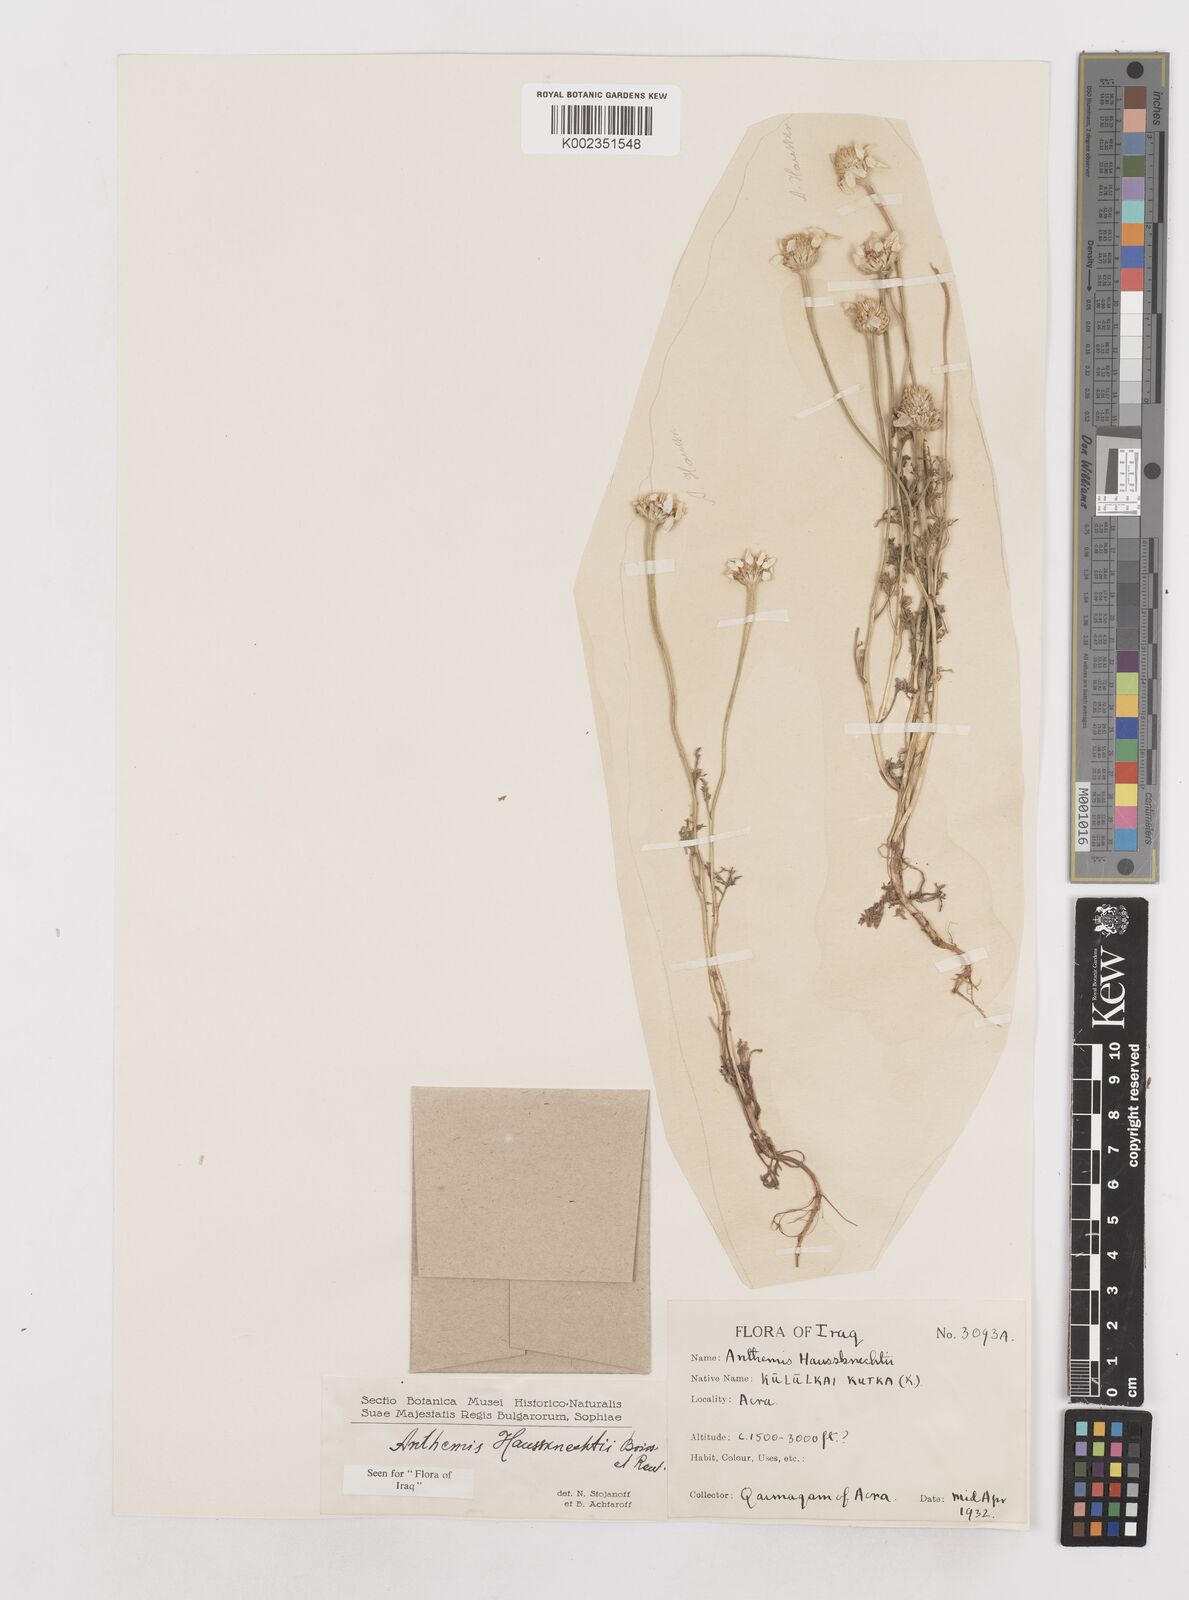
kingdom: Plantae
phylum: Tracheophyta
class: Magnoliopsida
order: Asterales
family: Asteraceae
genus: Anthemis
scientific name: Anthemis haussknechtii
